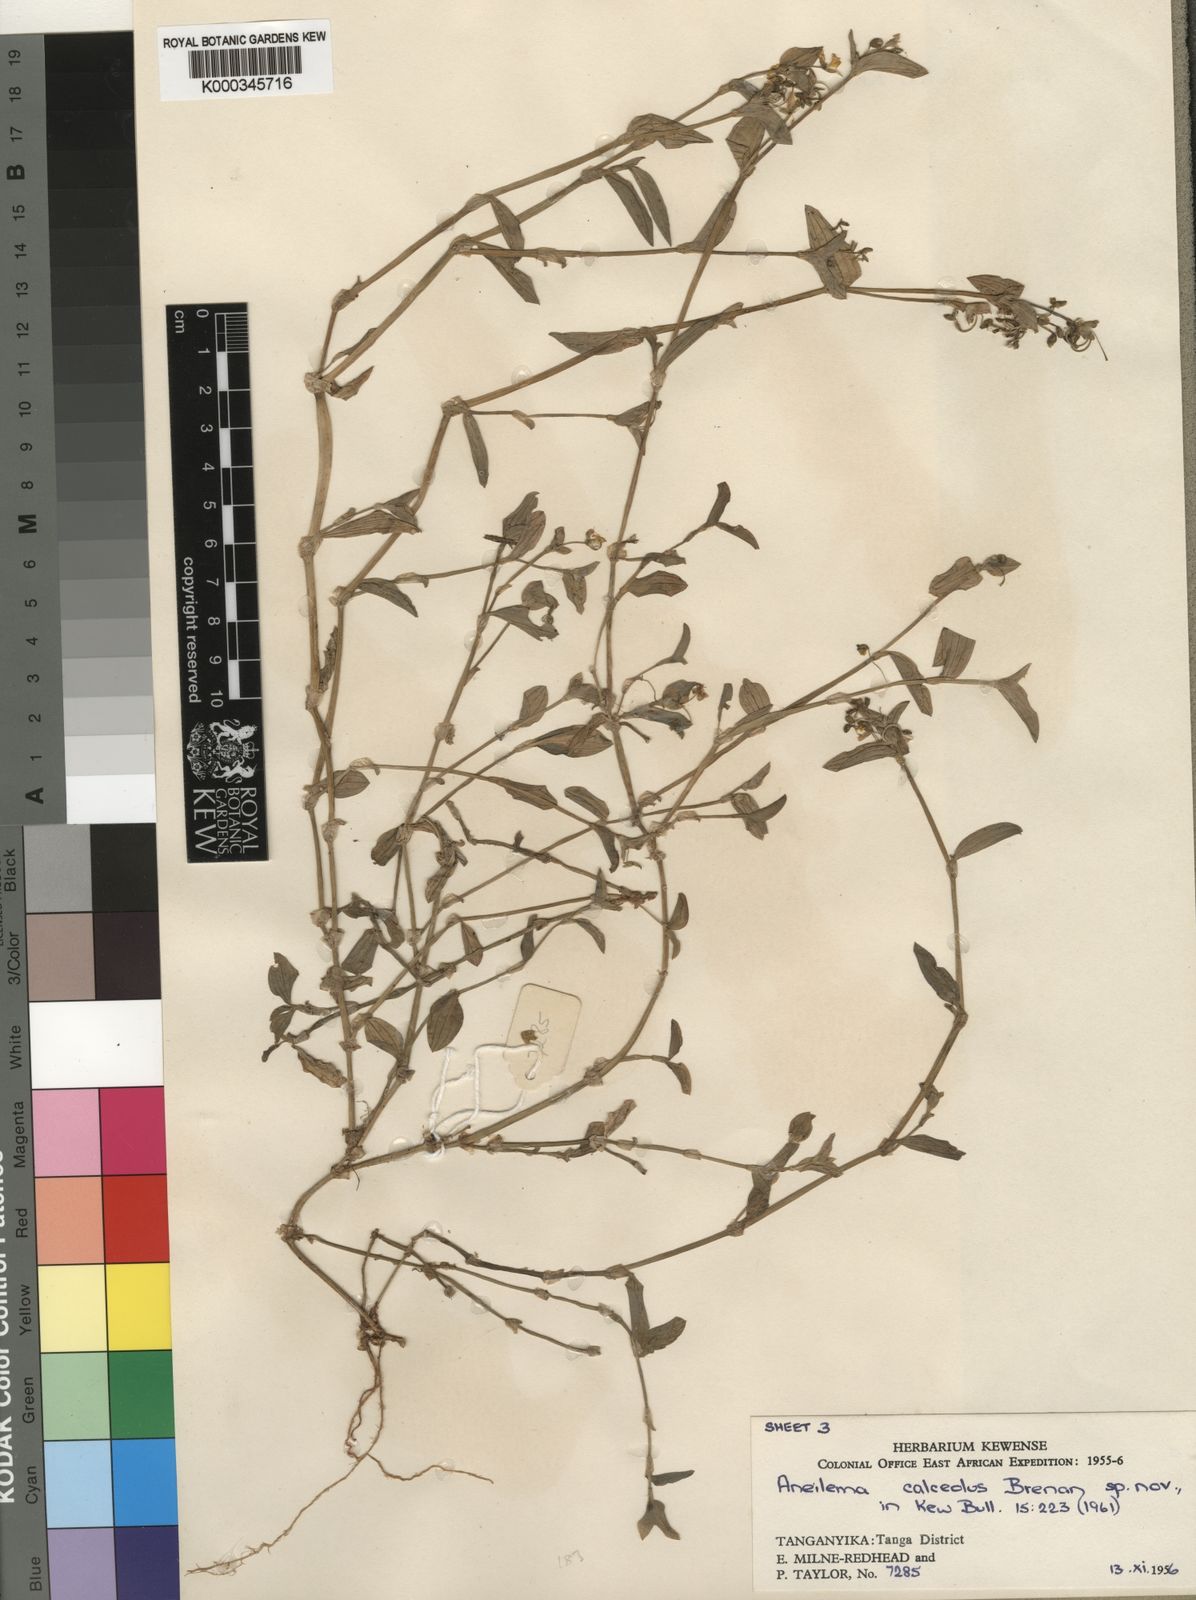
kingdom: Plantae
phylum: Tracheophyta
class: Liliopsida
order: Commelinales
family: Commelinaceae
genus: Aneilema
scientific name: Aneilema calceolus
